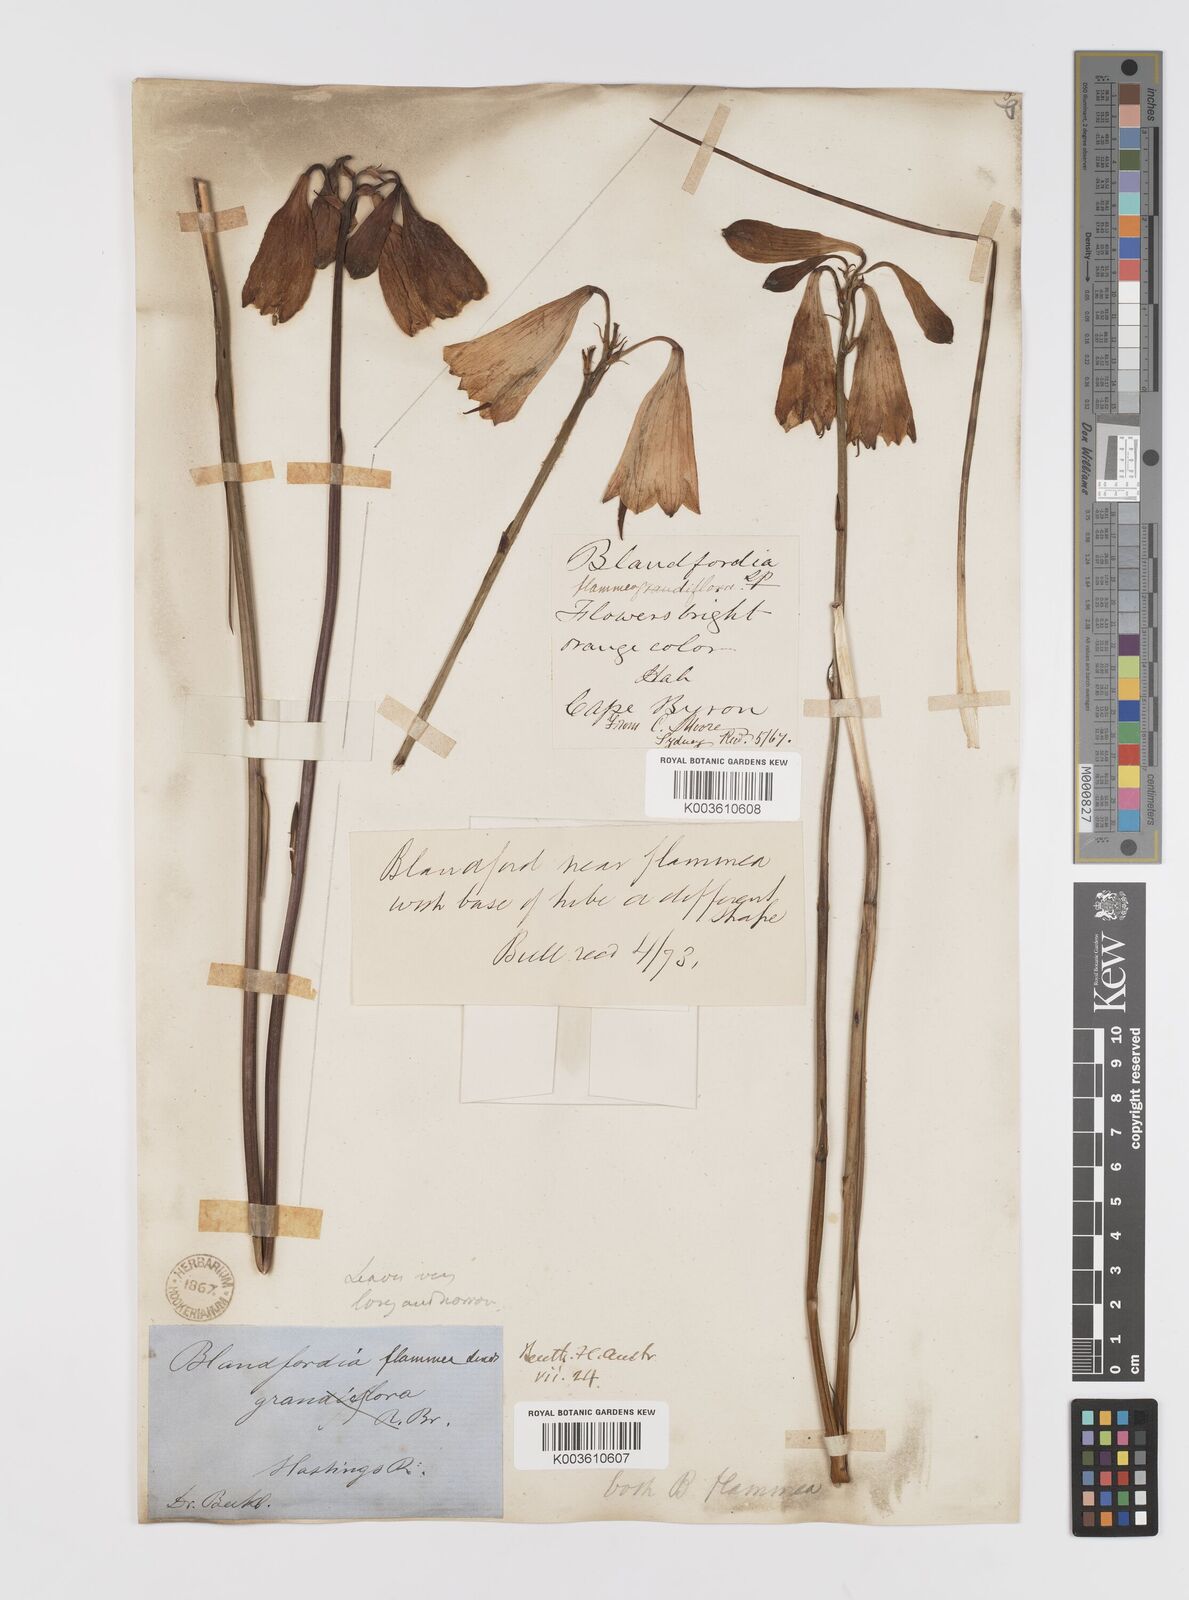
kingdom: Plantae
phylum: Tracheophyta
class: Liliopsida
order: Asparagales
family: Blandfordiaceae
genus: Blandfordia
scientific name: Blandfordia grandiflora
